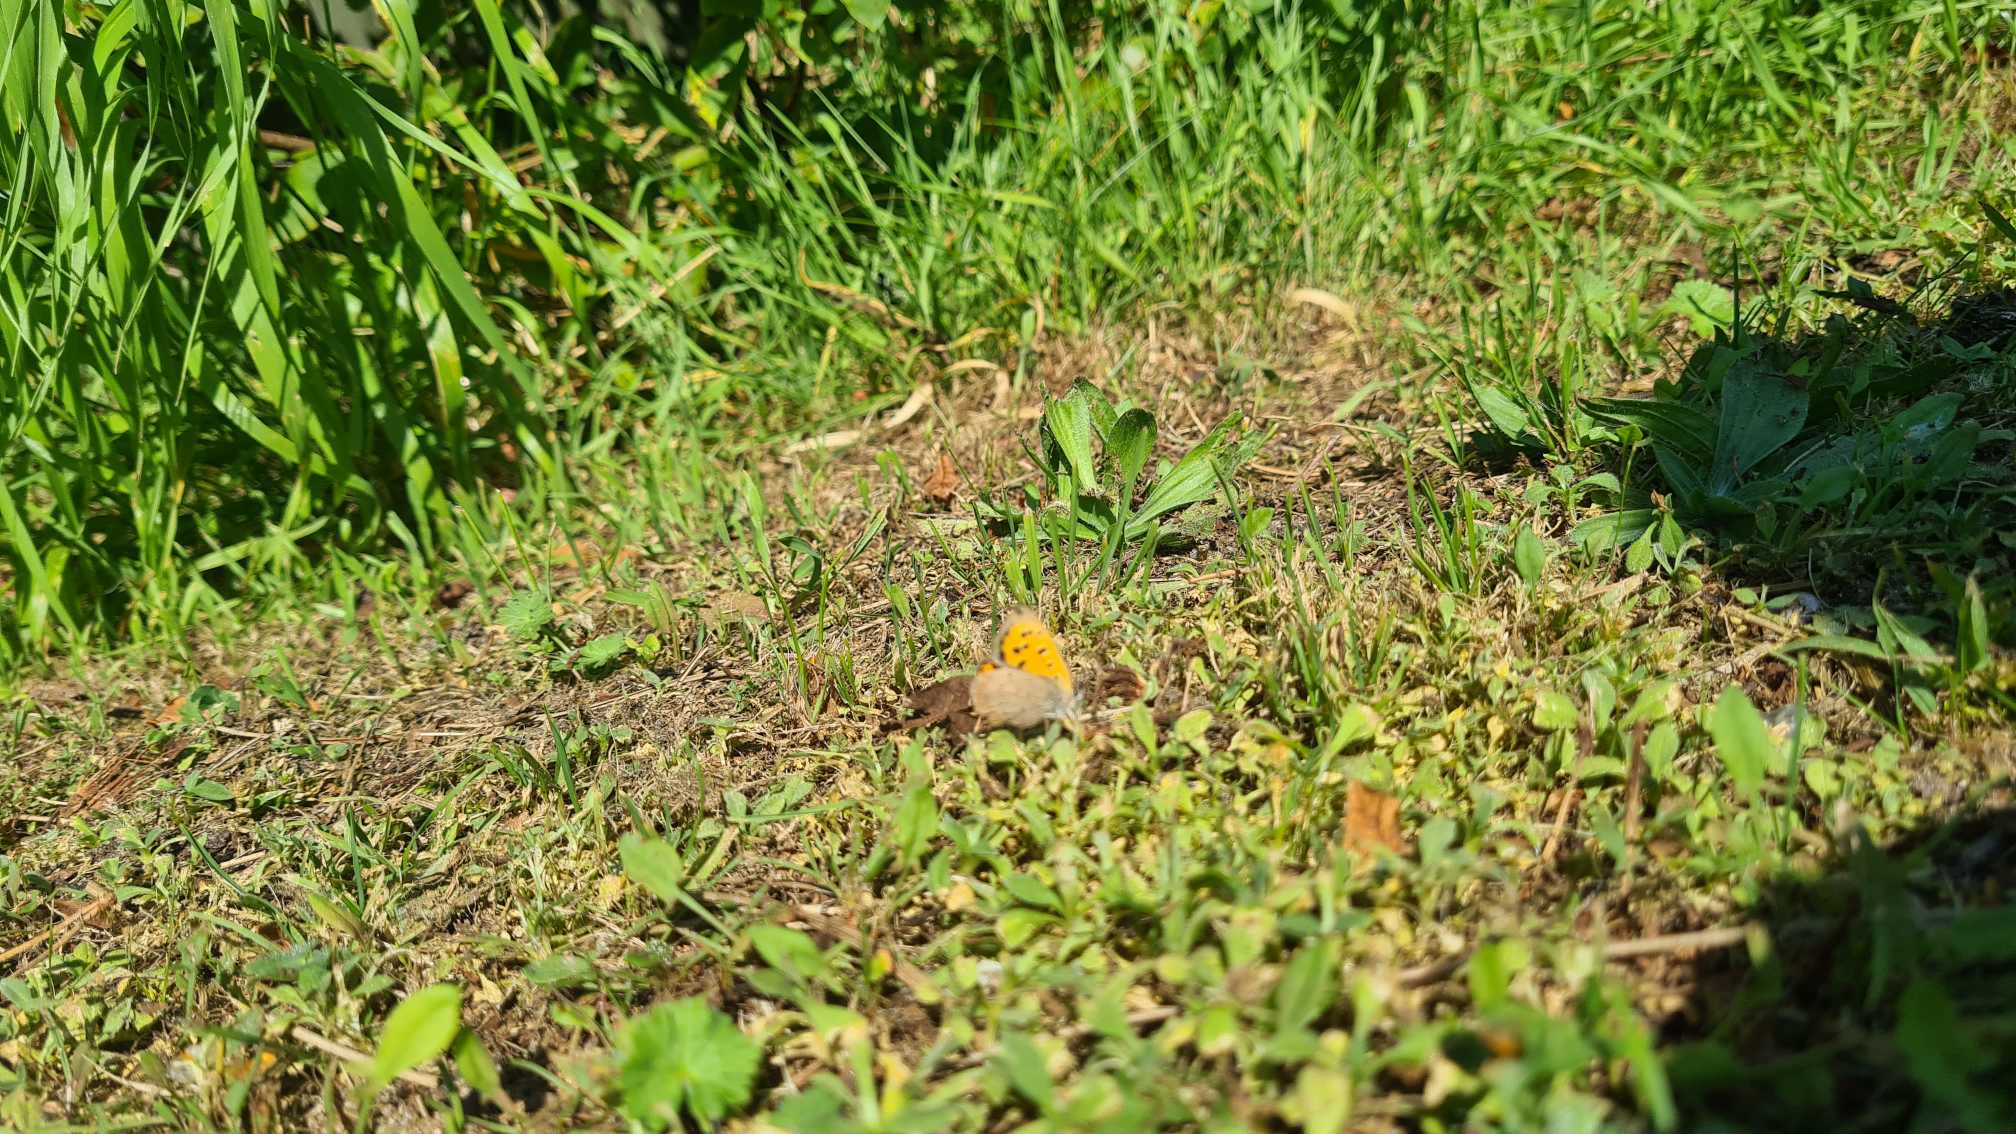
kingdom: Animalia
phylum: Arthropoda
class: Insecta
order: Lepidoptera
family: Lycaenidae
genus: Lycaena
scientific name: Lycaena phlaeas
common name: Lille ildfugl
